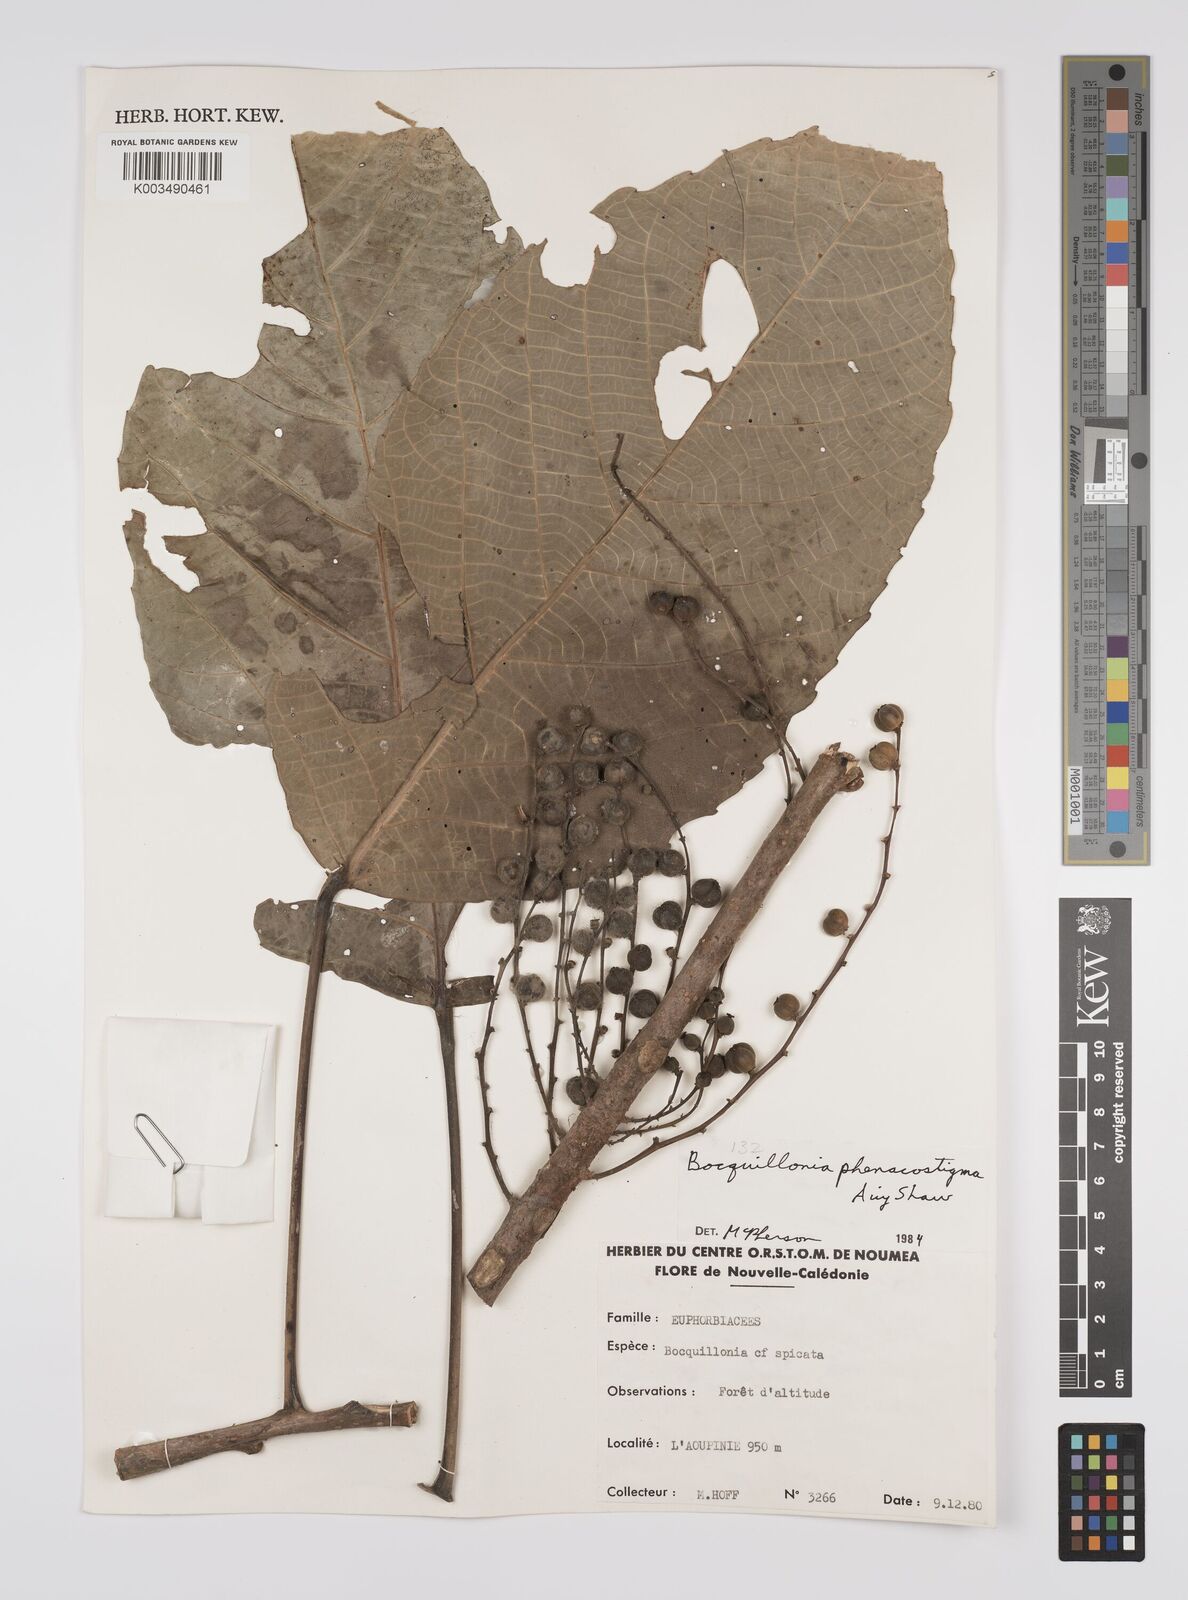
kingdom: Plantae
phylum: Tracheophyta
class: Magnoliopsida
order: Malpighiales
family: Euphorbiaceae
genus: Bocquillonia
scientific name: Bocquillonia phenacostigma
